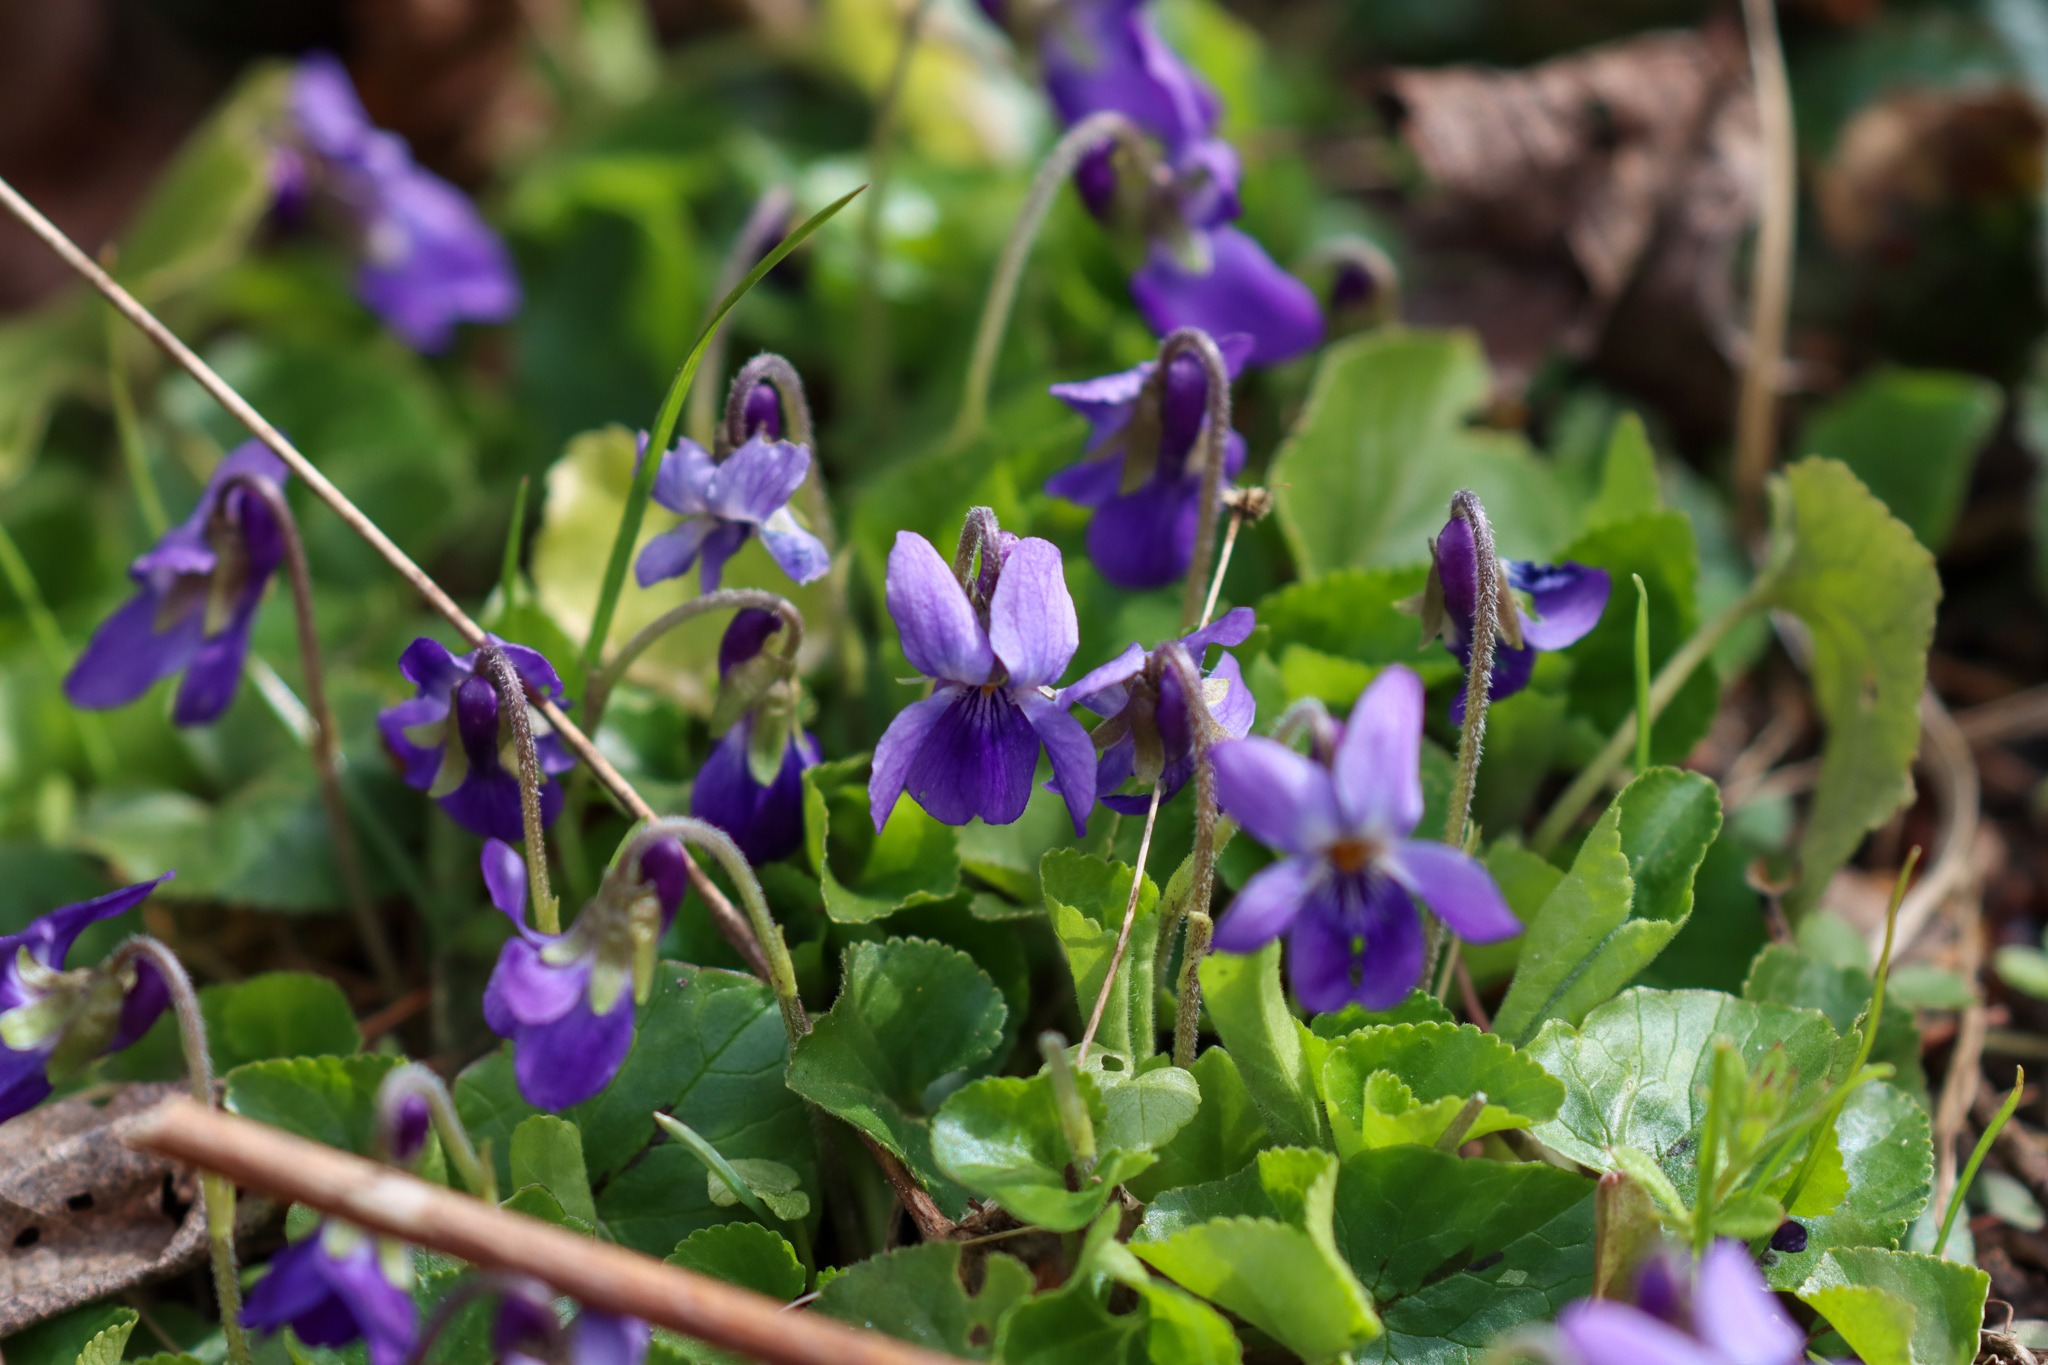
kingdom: Plantae
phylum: Tracheophyta
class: Magnoliopsida
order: Malpighiales
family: Violaceae
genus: Viola
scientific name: Viola odorata
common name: Marts-viol
